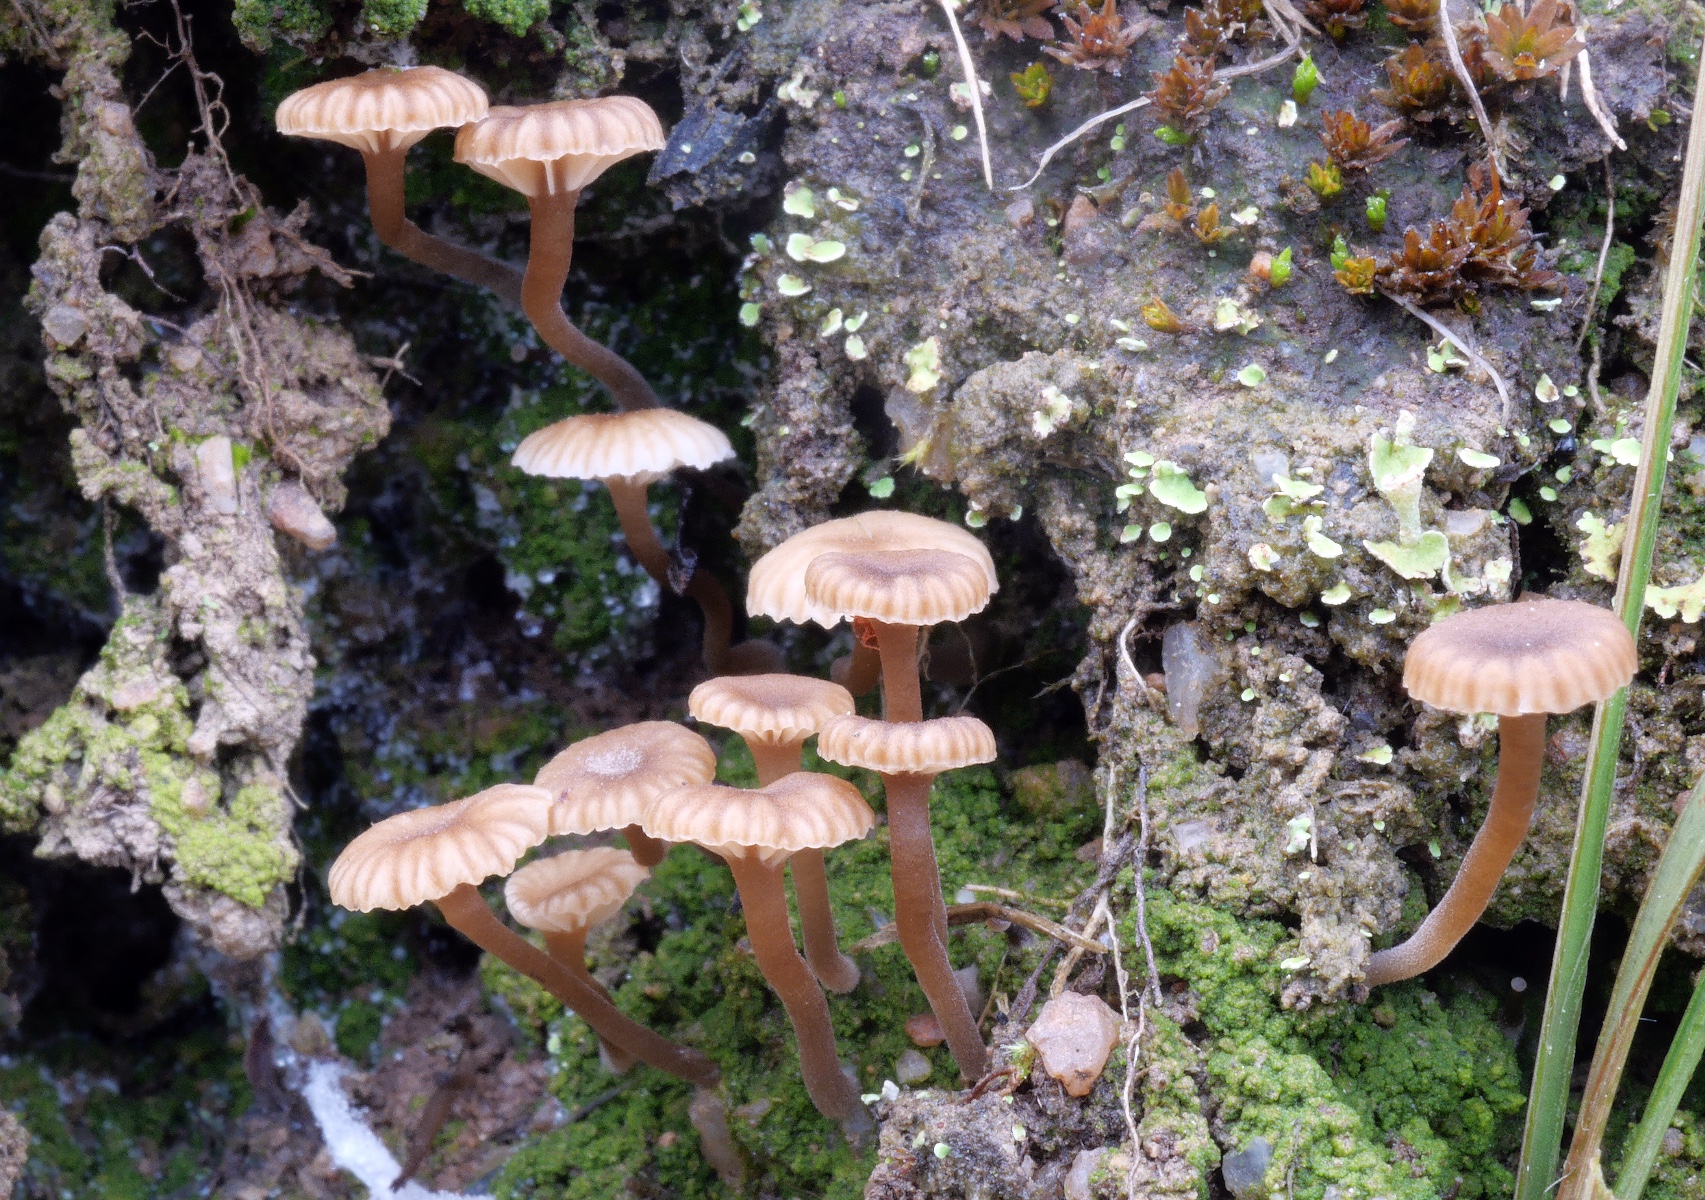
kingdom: Fungi
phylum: Basidiomycota
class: Agaricomycetes
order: Agaricales
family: Hygrophoraceae
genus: Lichenomphalia
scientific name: Lichenomphalia velutina
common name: dunet lavhat
